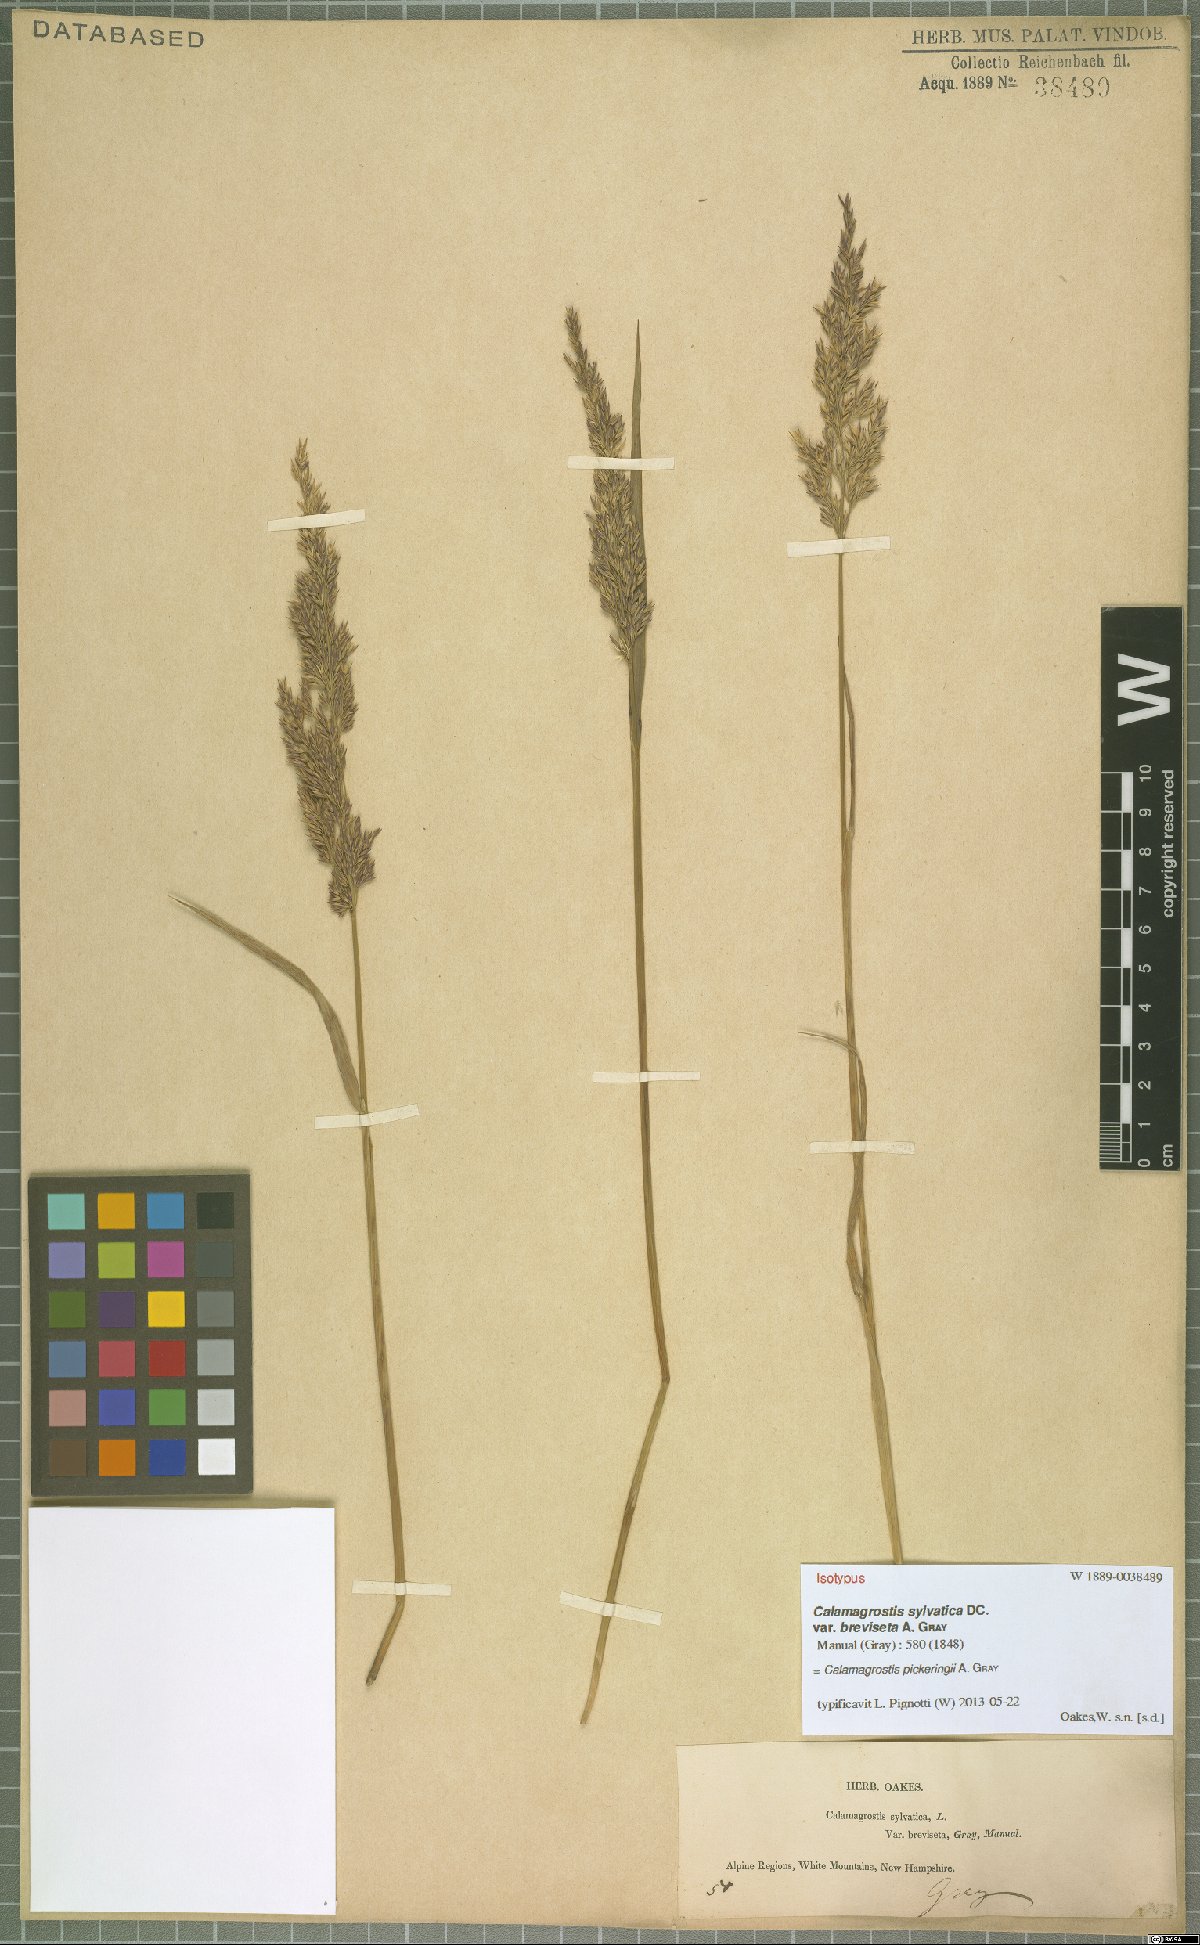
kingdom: Plantae
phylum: Tracheophyta
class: Liliopsida
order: Poales
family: Poaceae
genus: Calamagrostis
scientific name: Calamagrostis pickeringii
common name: Pickering's reed bentgrass
